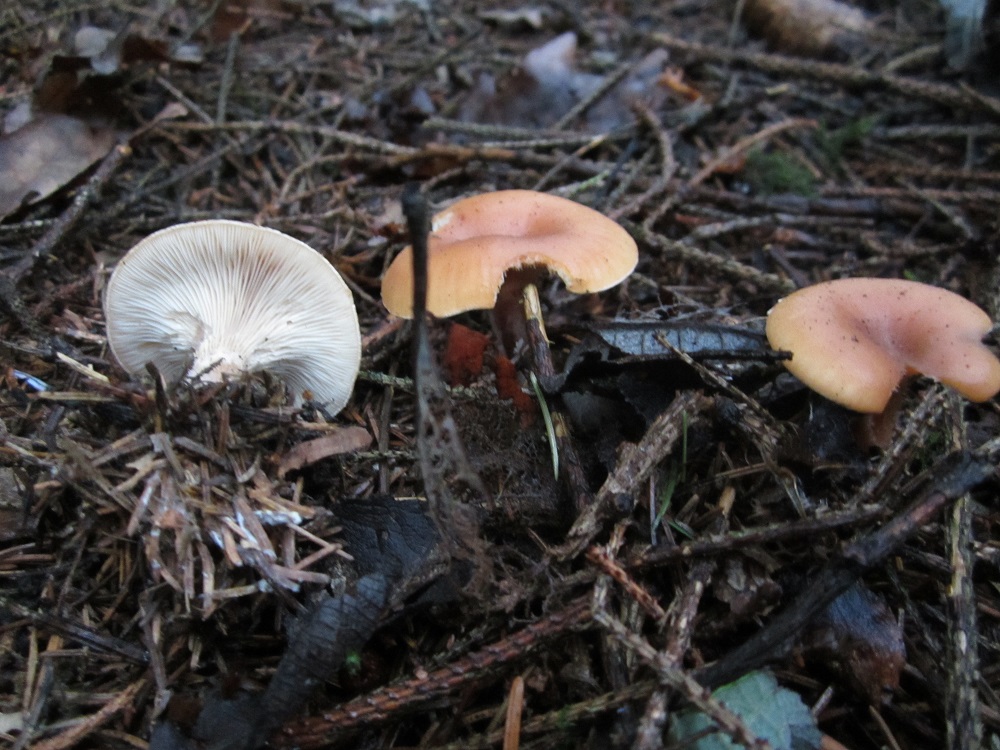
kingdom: Fungi
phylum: Basidiomycota
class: Agaricomycetes
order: Agaricales
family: Tricholomataceae
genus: Paralepista
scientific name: Paralepista flaccida
